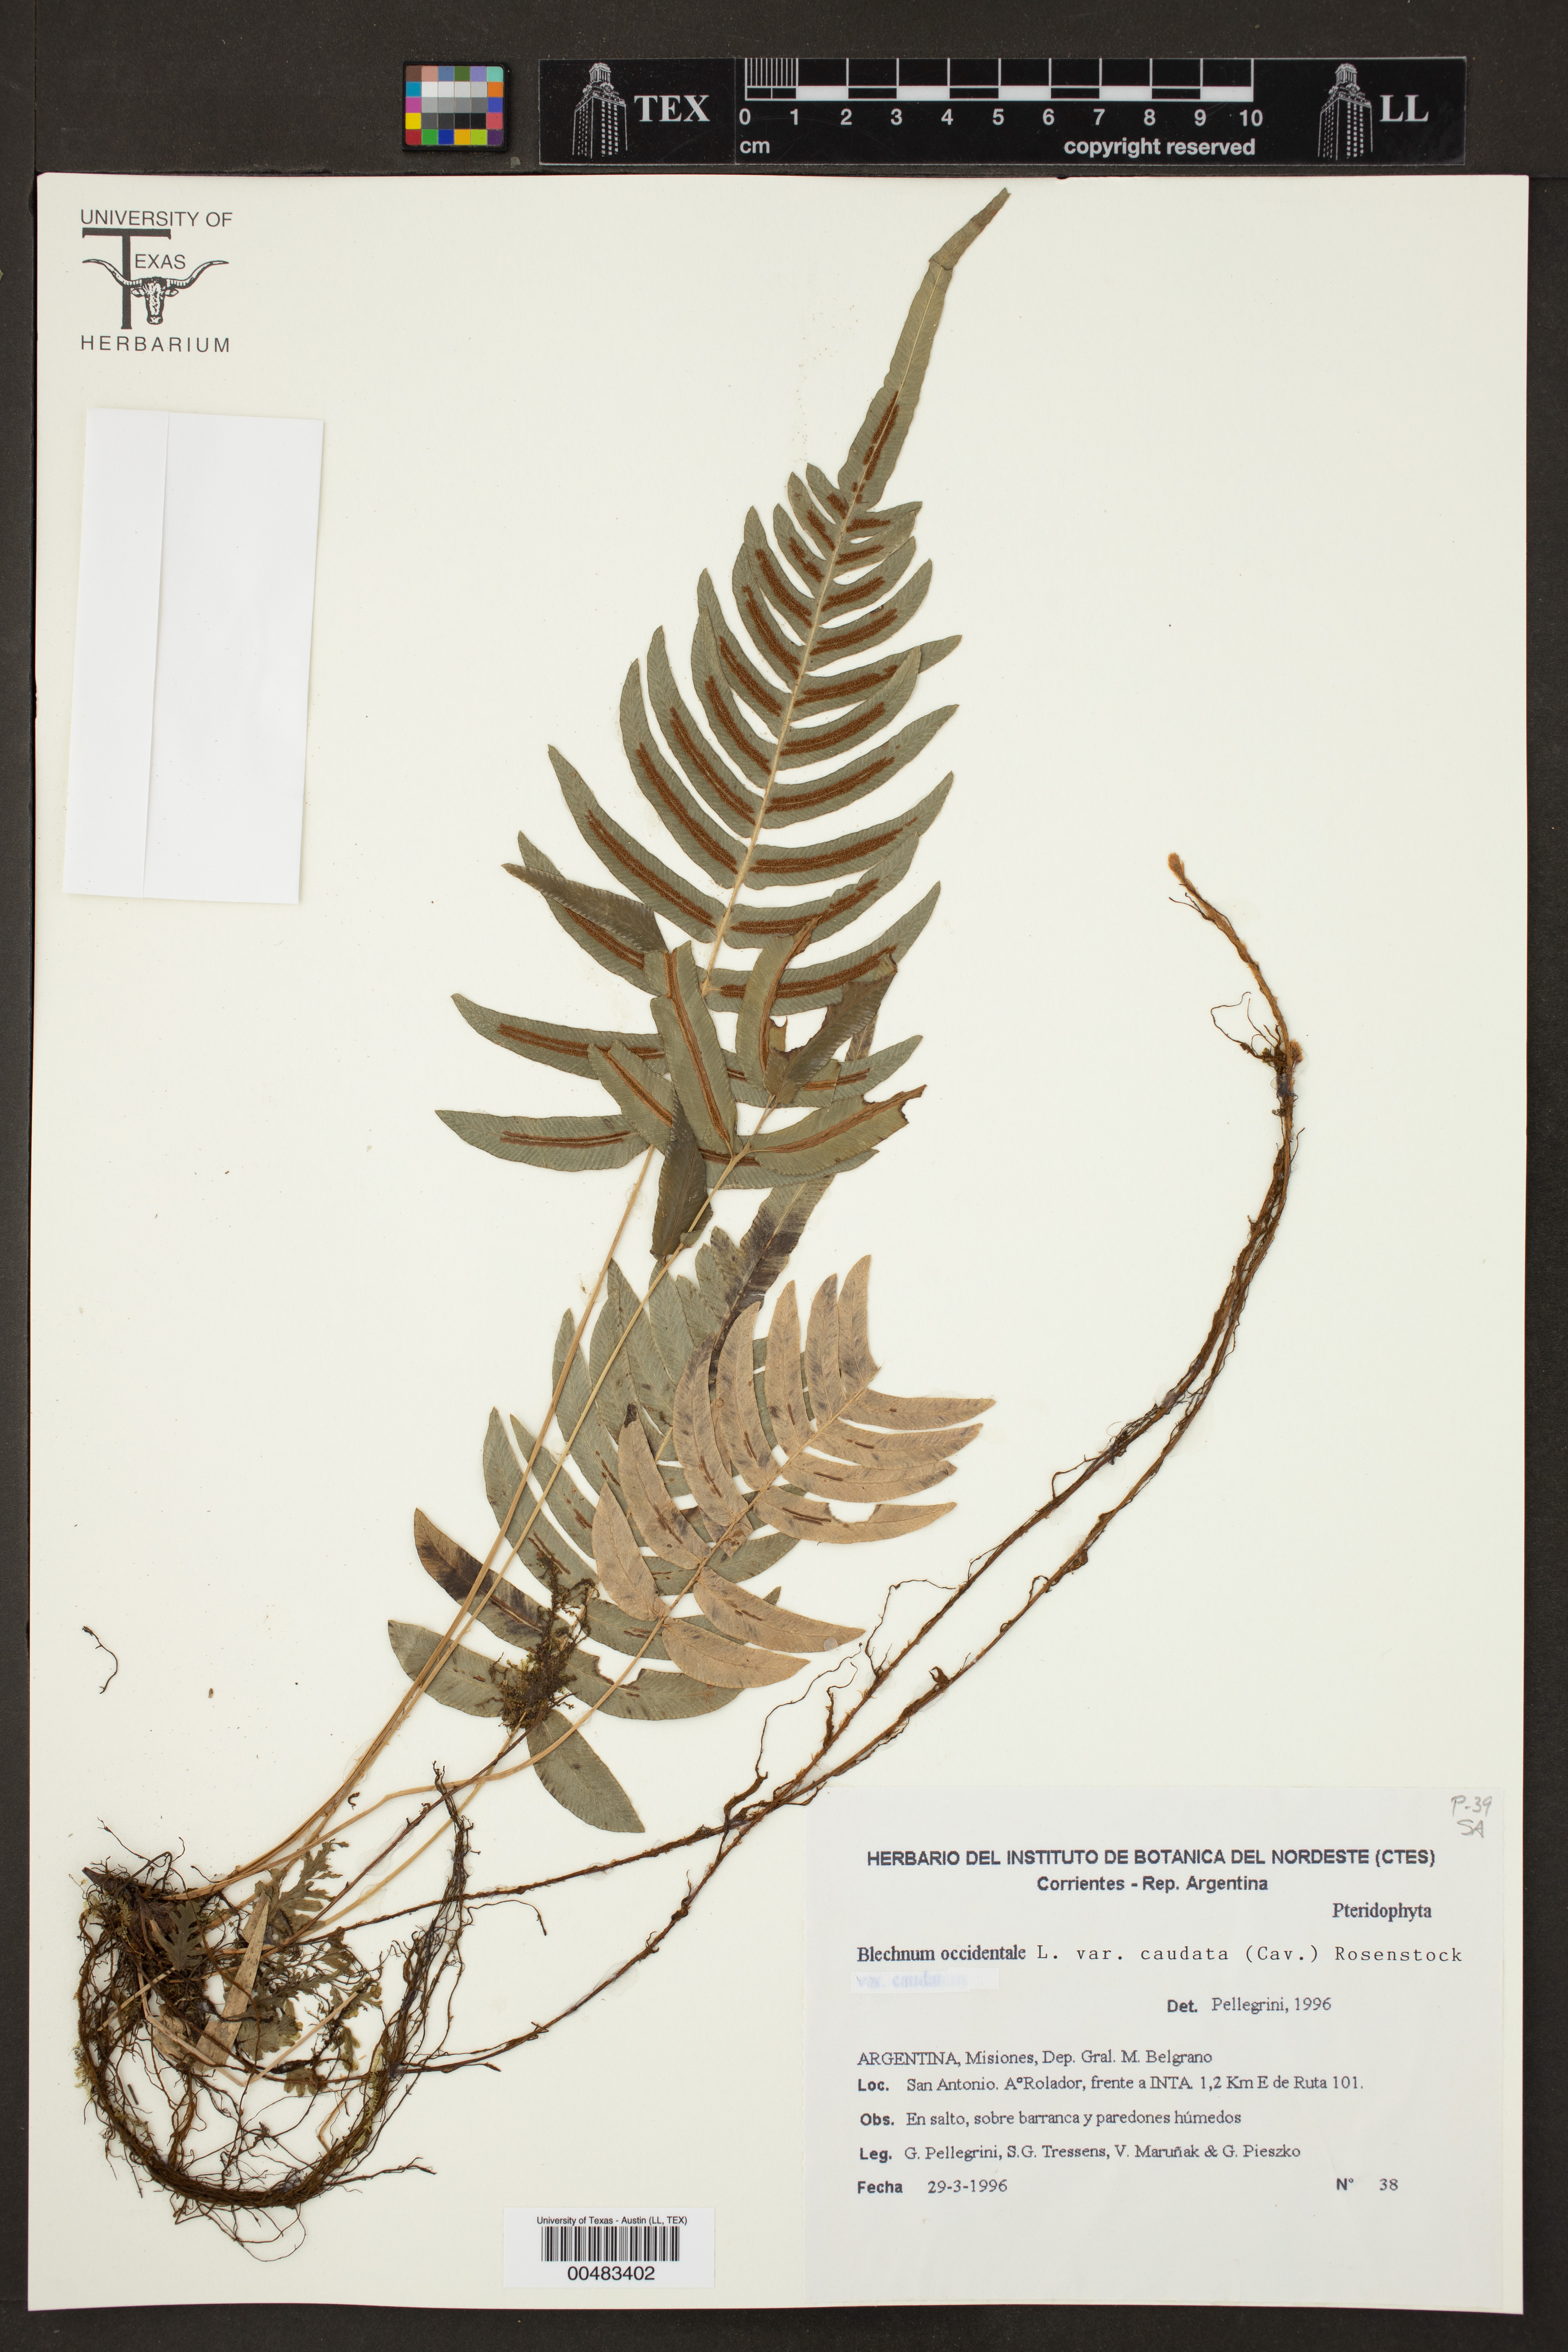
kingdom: Plantae
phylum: Tracheophyta
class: Polypodiopsida
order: Polypodiales
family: Blechnaceae
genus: Blechnum
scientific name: Blechnum occidentale
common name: Hammock fern
